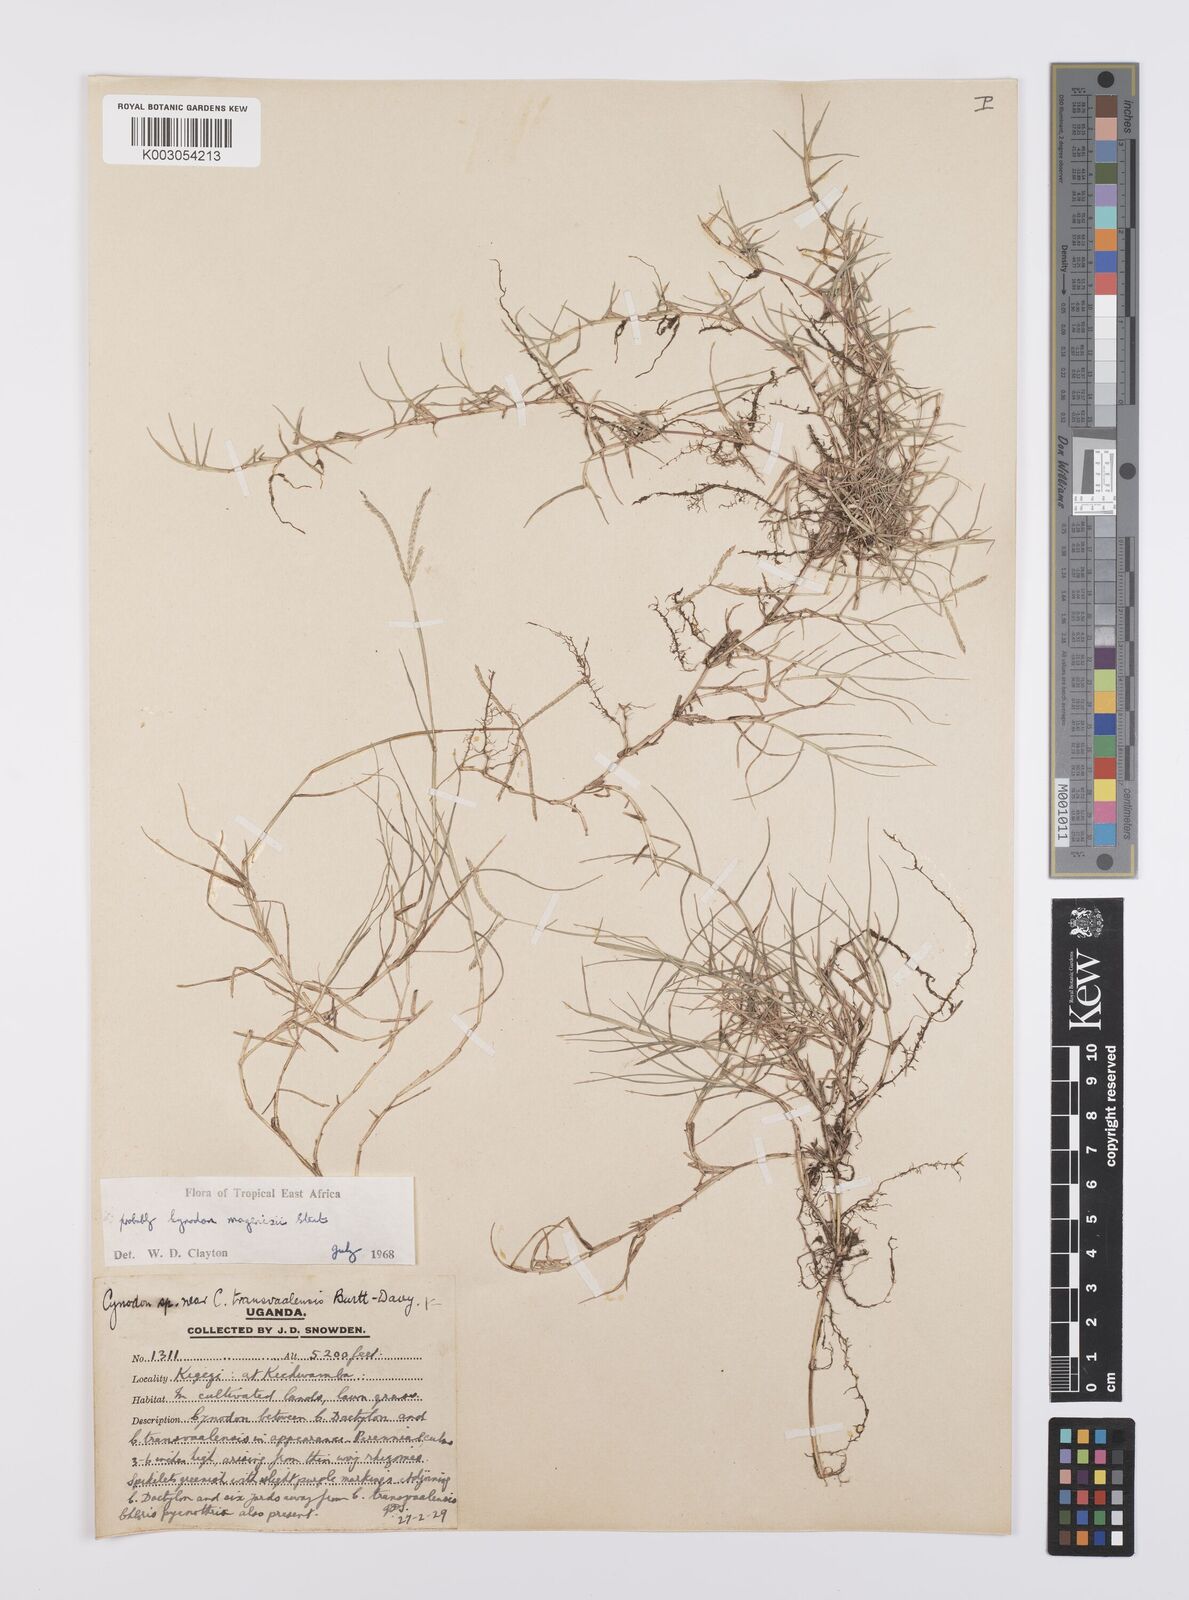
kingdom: Plantae
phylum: Tracheophyta
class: Liliopsida
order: Poales
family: Poaceae
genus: Cynodon
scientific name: Cynodon magennisii
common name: Bermudagrass
